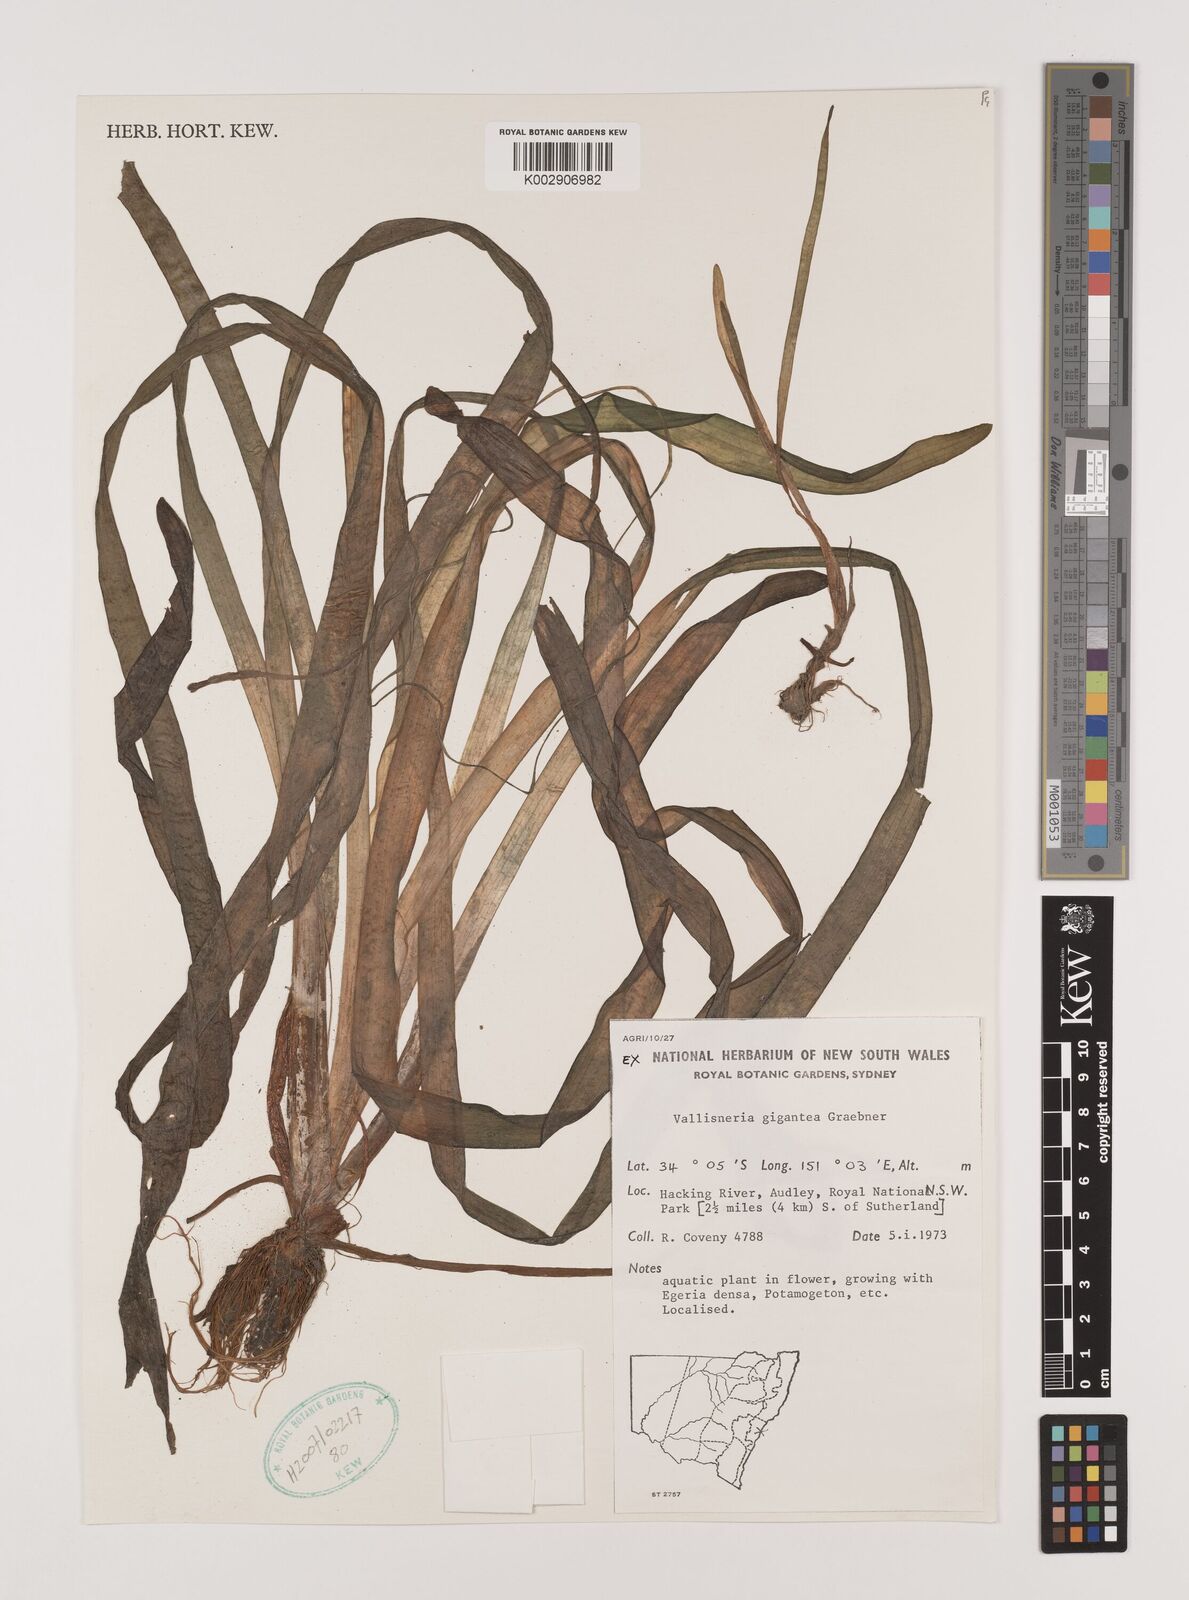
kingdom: Plantae
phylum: Tracheophyta
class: Liliopsida
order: Alismatales
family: Hydrocharitaceae
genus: Vallisneria
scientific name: Vallisneria nana
